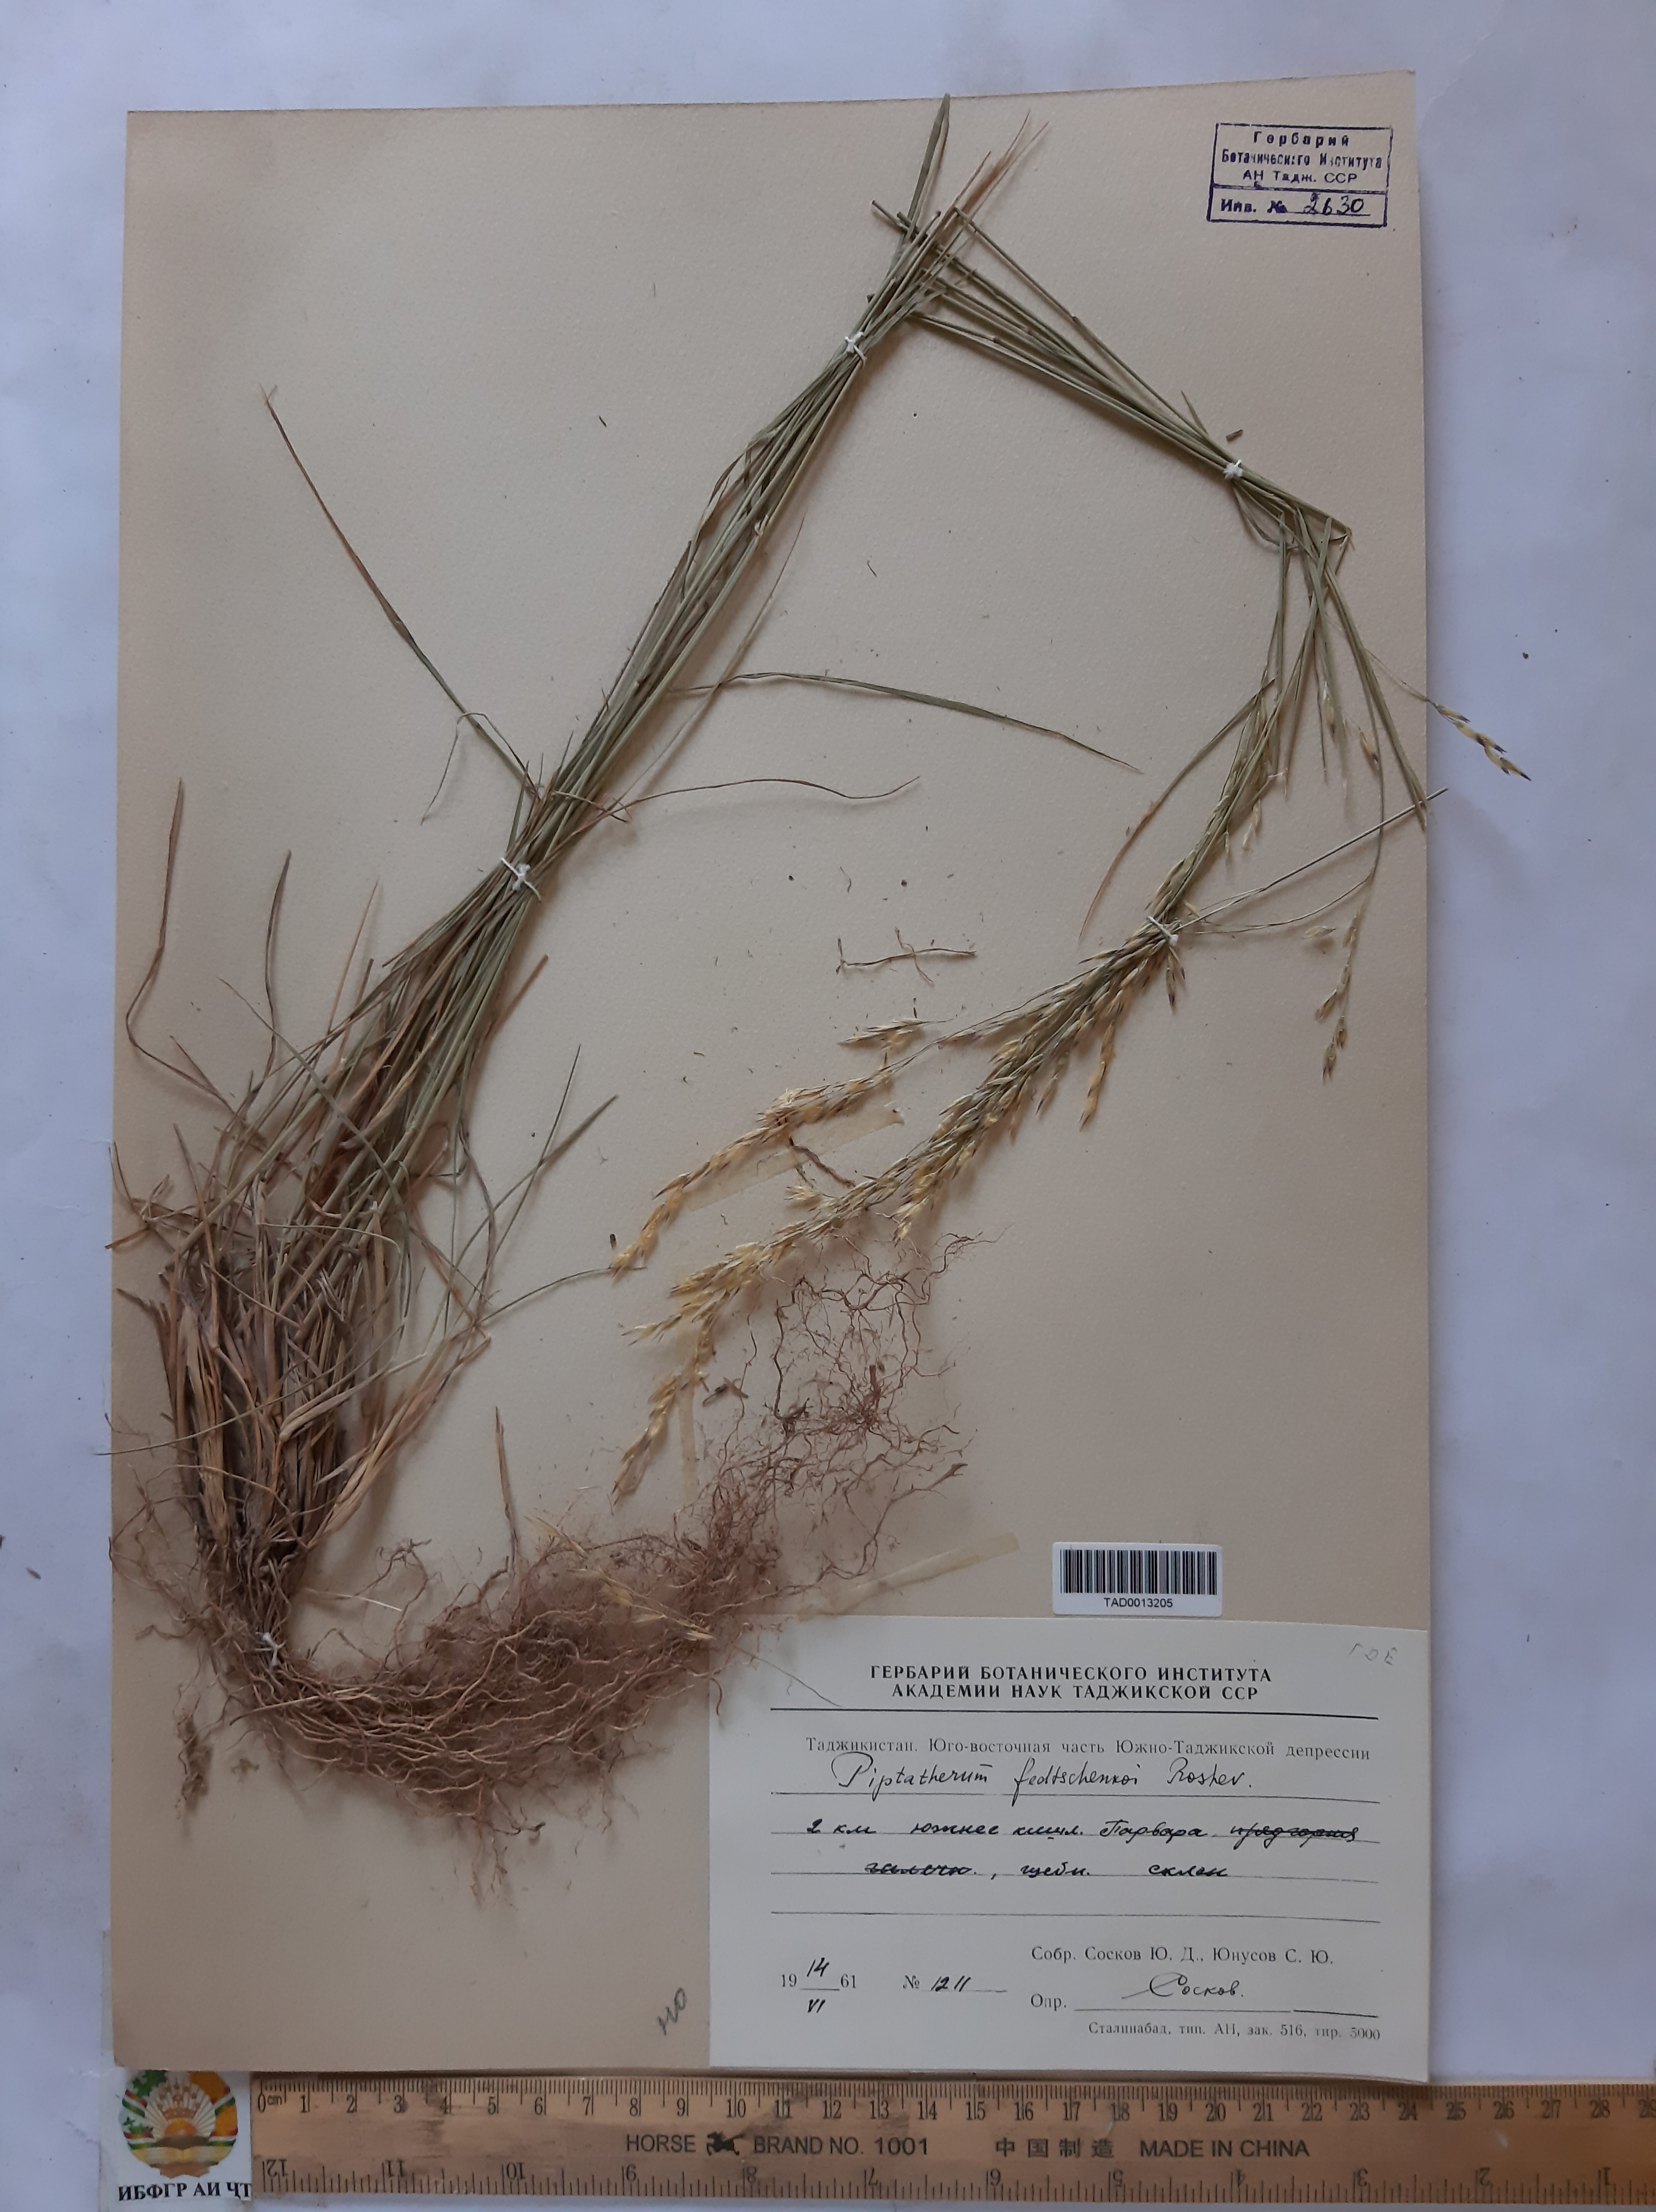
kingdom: Plantae
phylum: Tracheophyta
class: Liliopsida
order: Poales
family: Poaceae
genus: Piptatherum
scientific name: Piptatherum sogdianum
